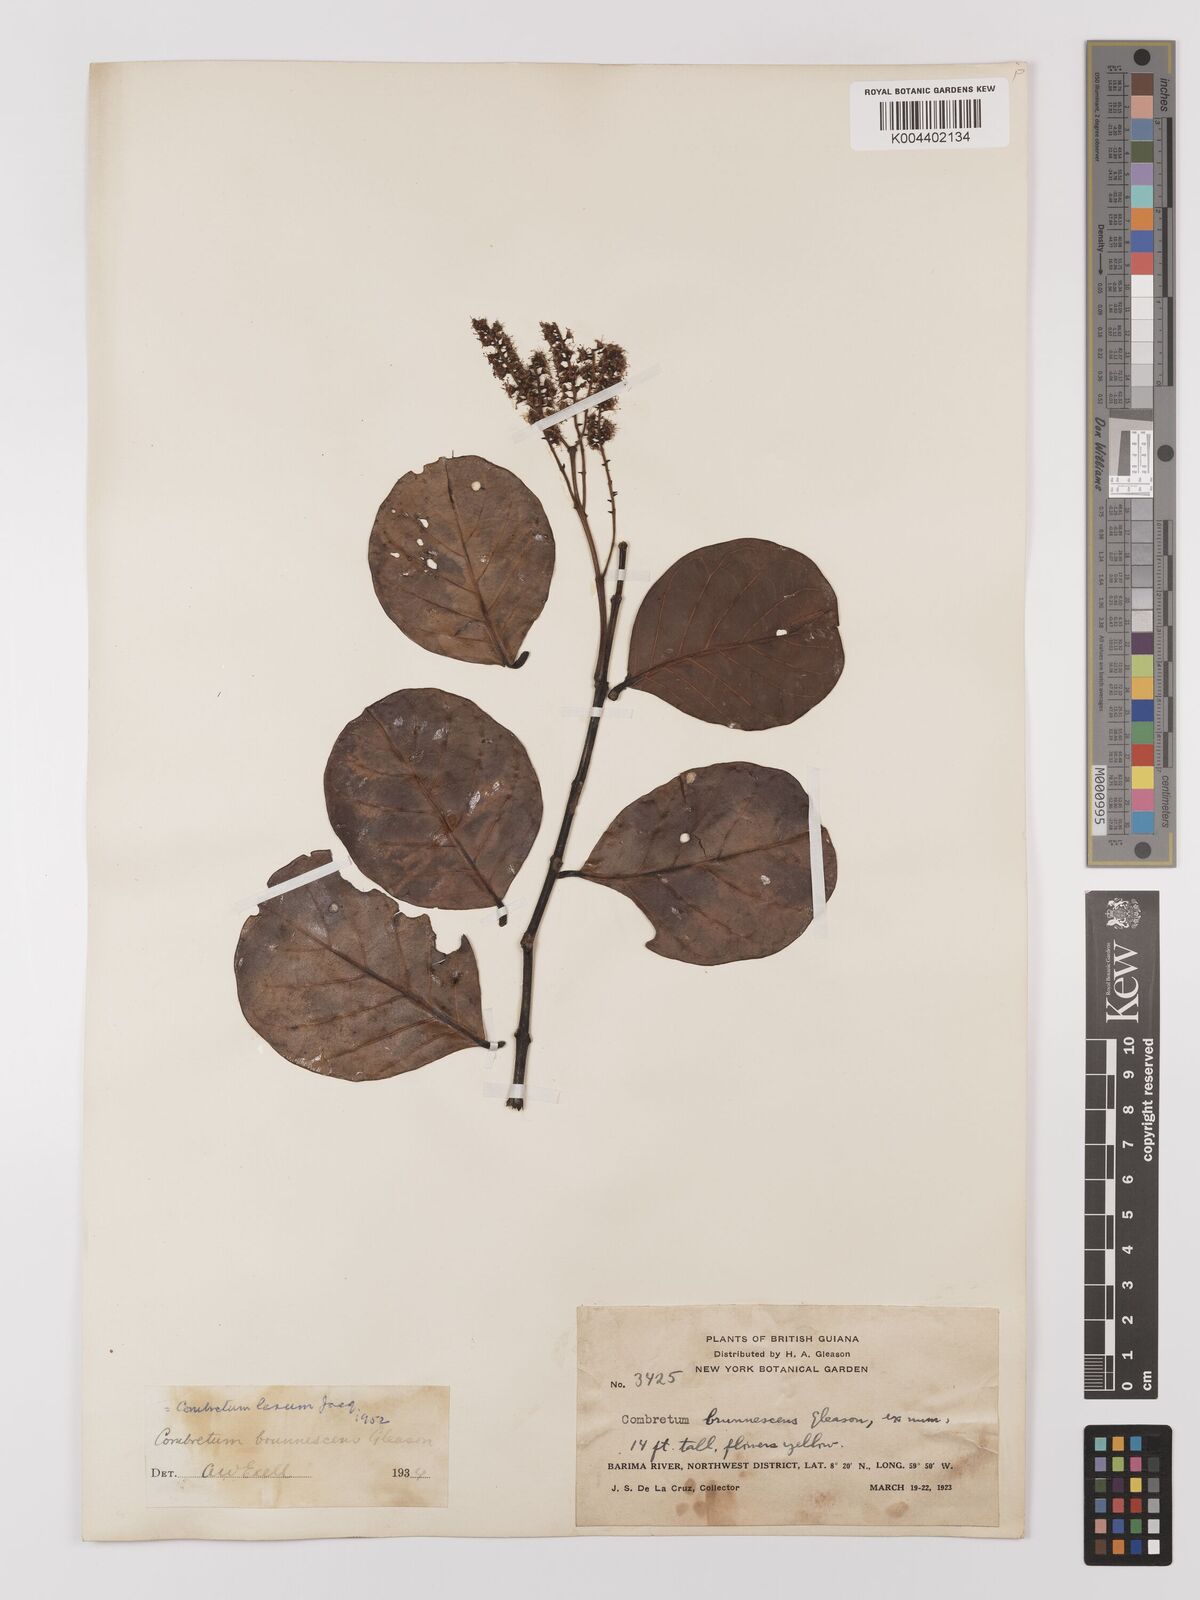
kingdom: Plantae
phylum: Tracheophyta
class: Magnoliopsida
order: Myrtales
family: Combretaceae
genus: Combretum
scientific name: Combretum
